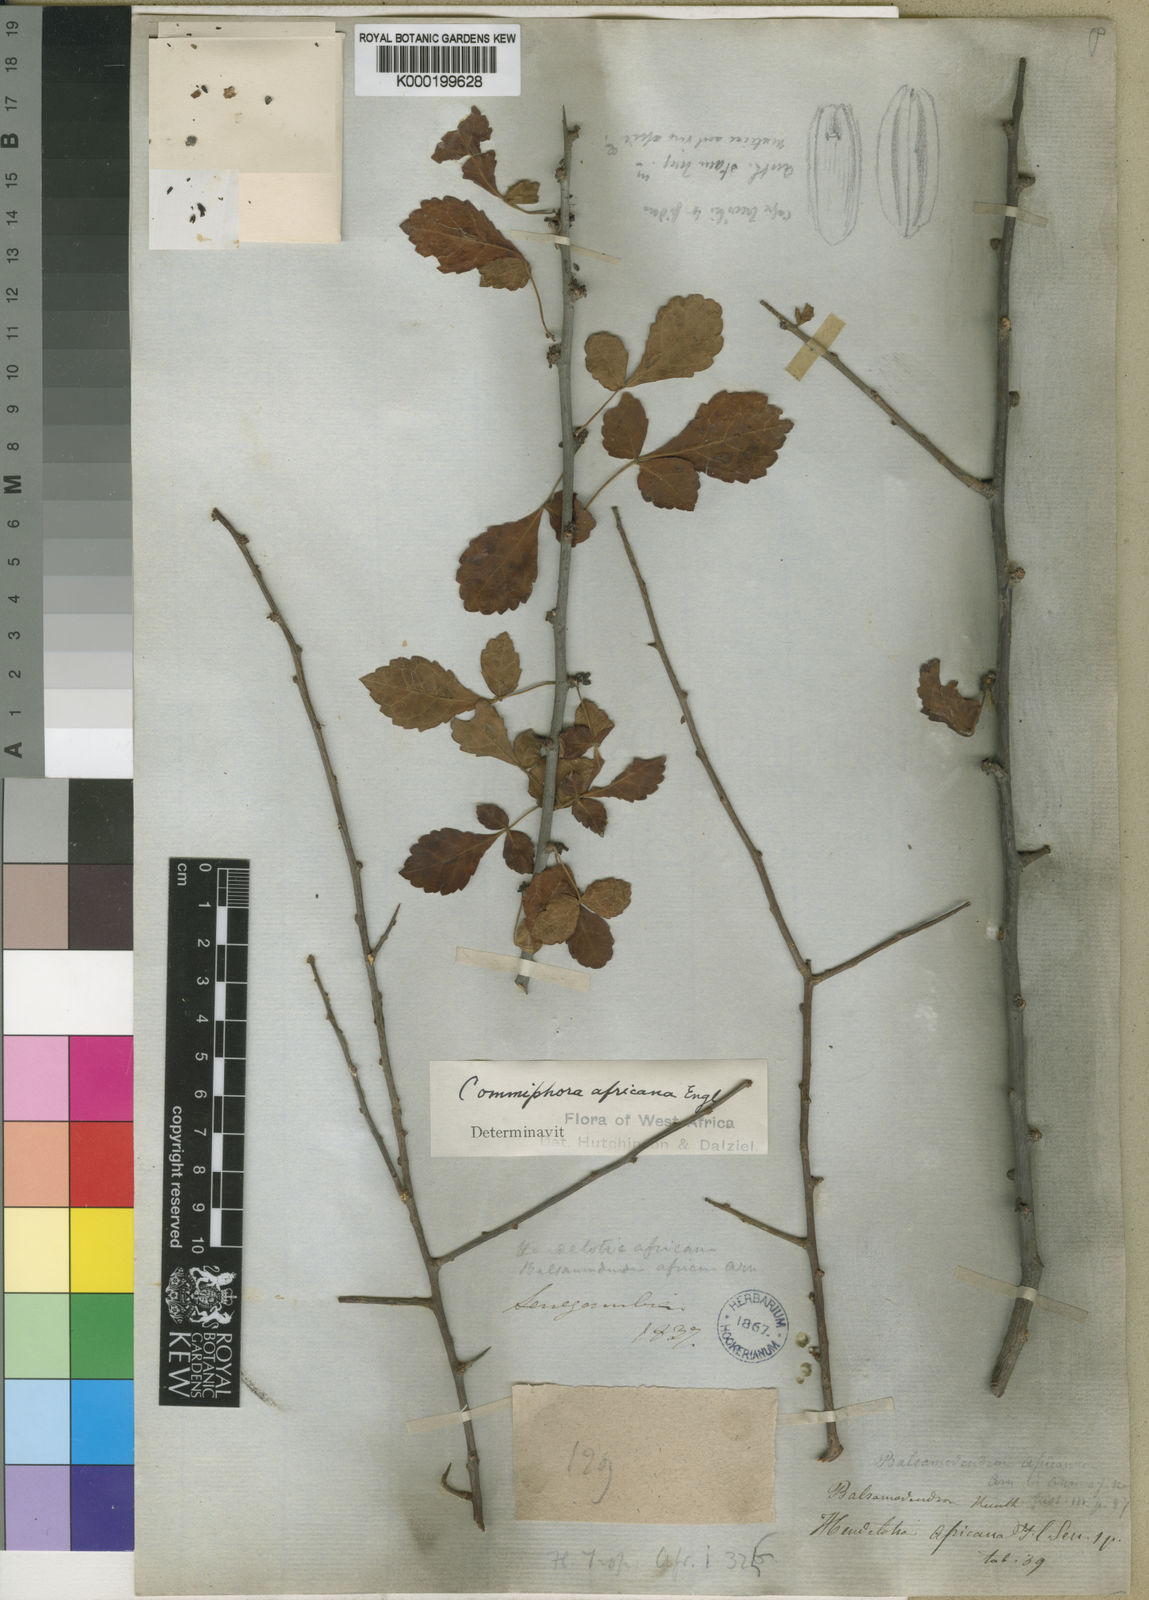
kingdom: Plantae
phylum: Tracheophyta
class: Magnoliopsida
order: Sapindales
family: Burseraceae
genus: Commiphora
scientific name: Commiphora africana
